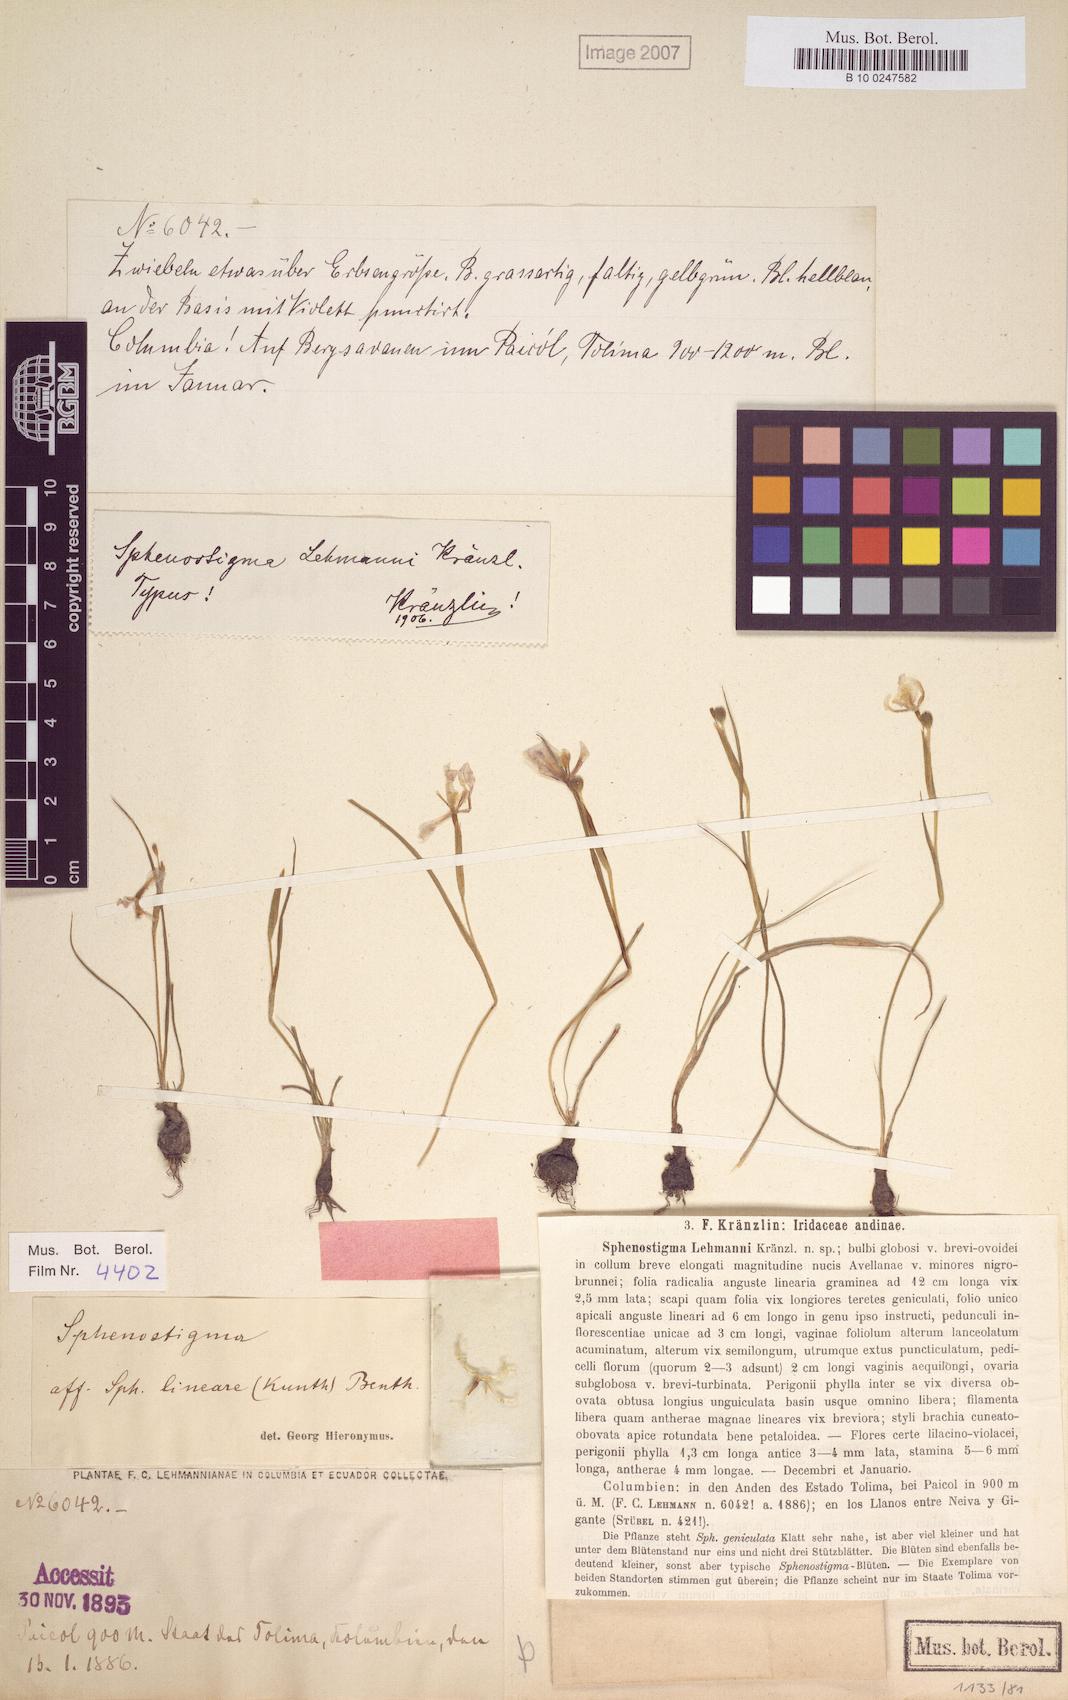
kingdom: Plantae
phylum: Tracheophyta
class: Liliopsida
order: Asparagales
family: Iridaceae
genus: Gelasine
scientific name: Gelasine Sphenostigma lehmannii
